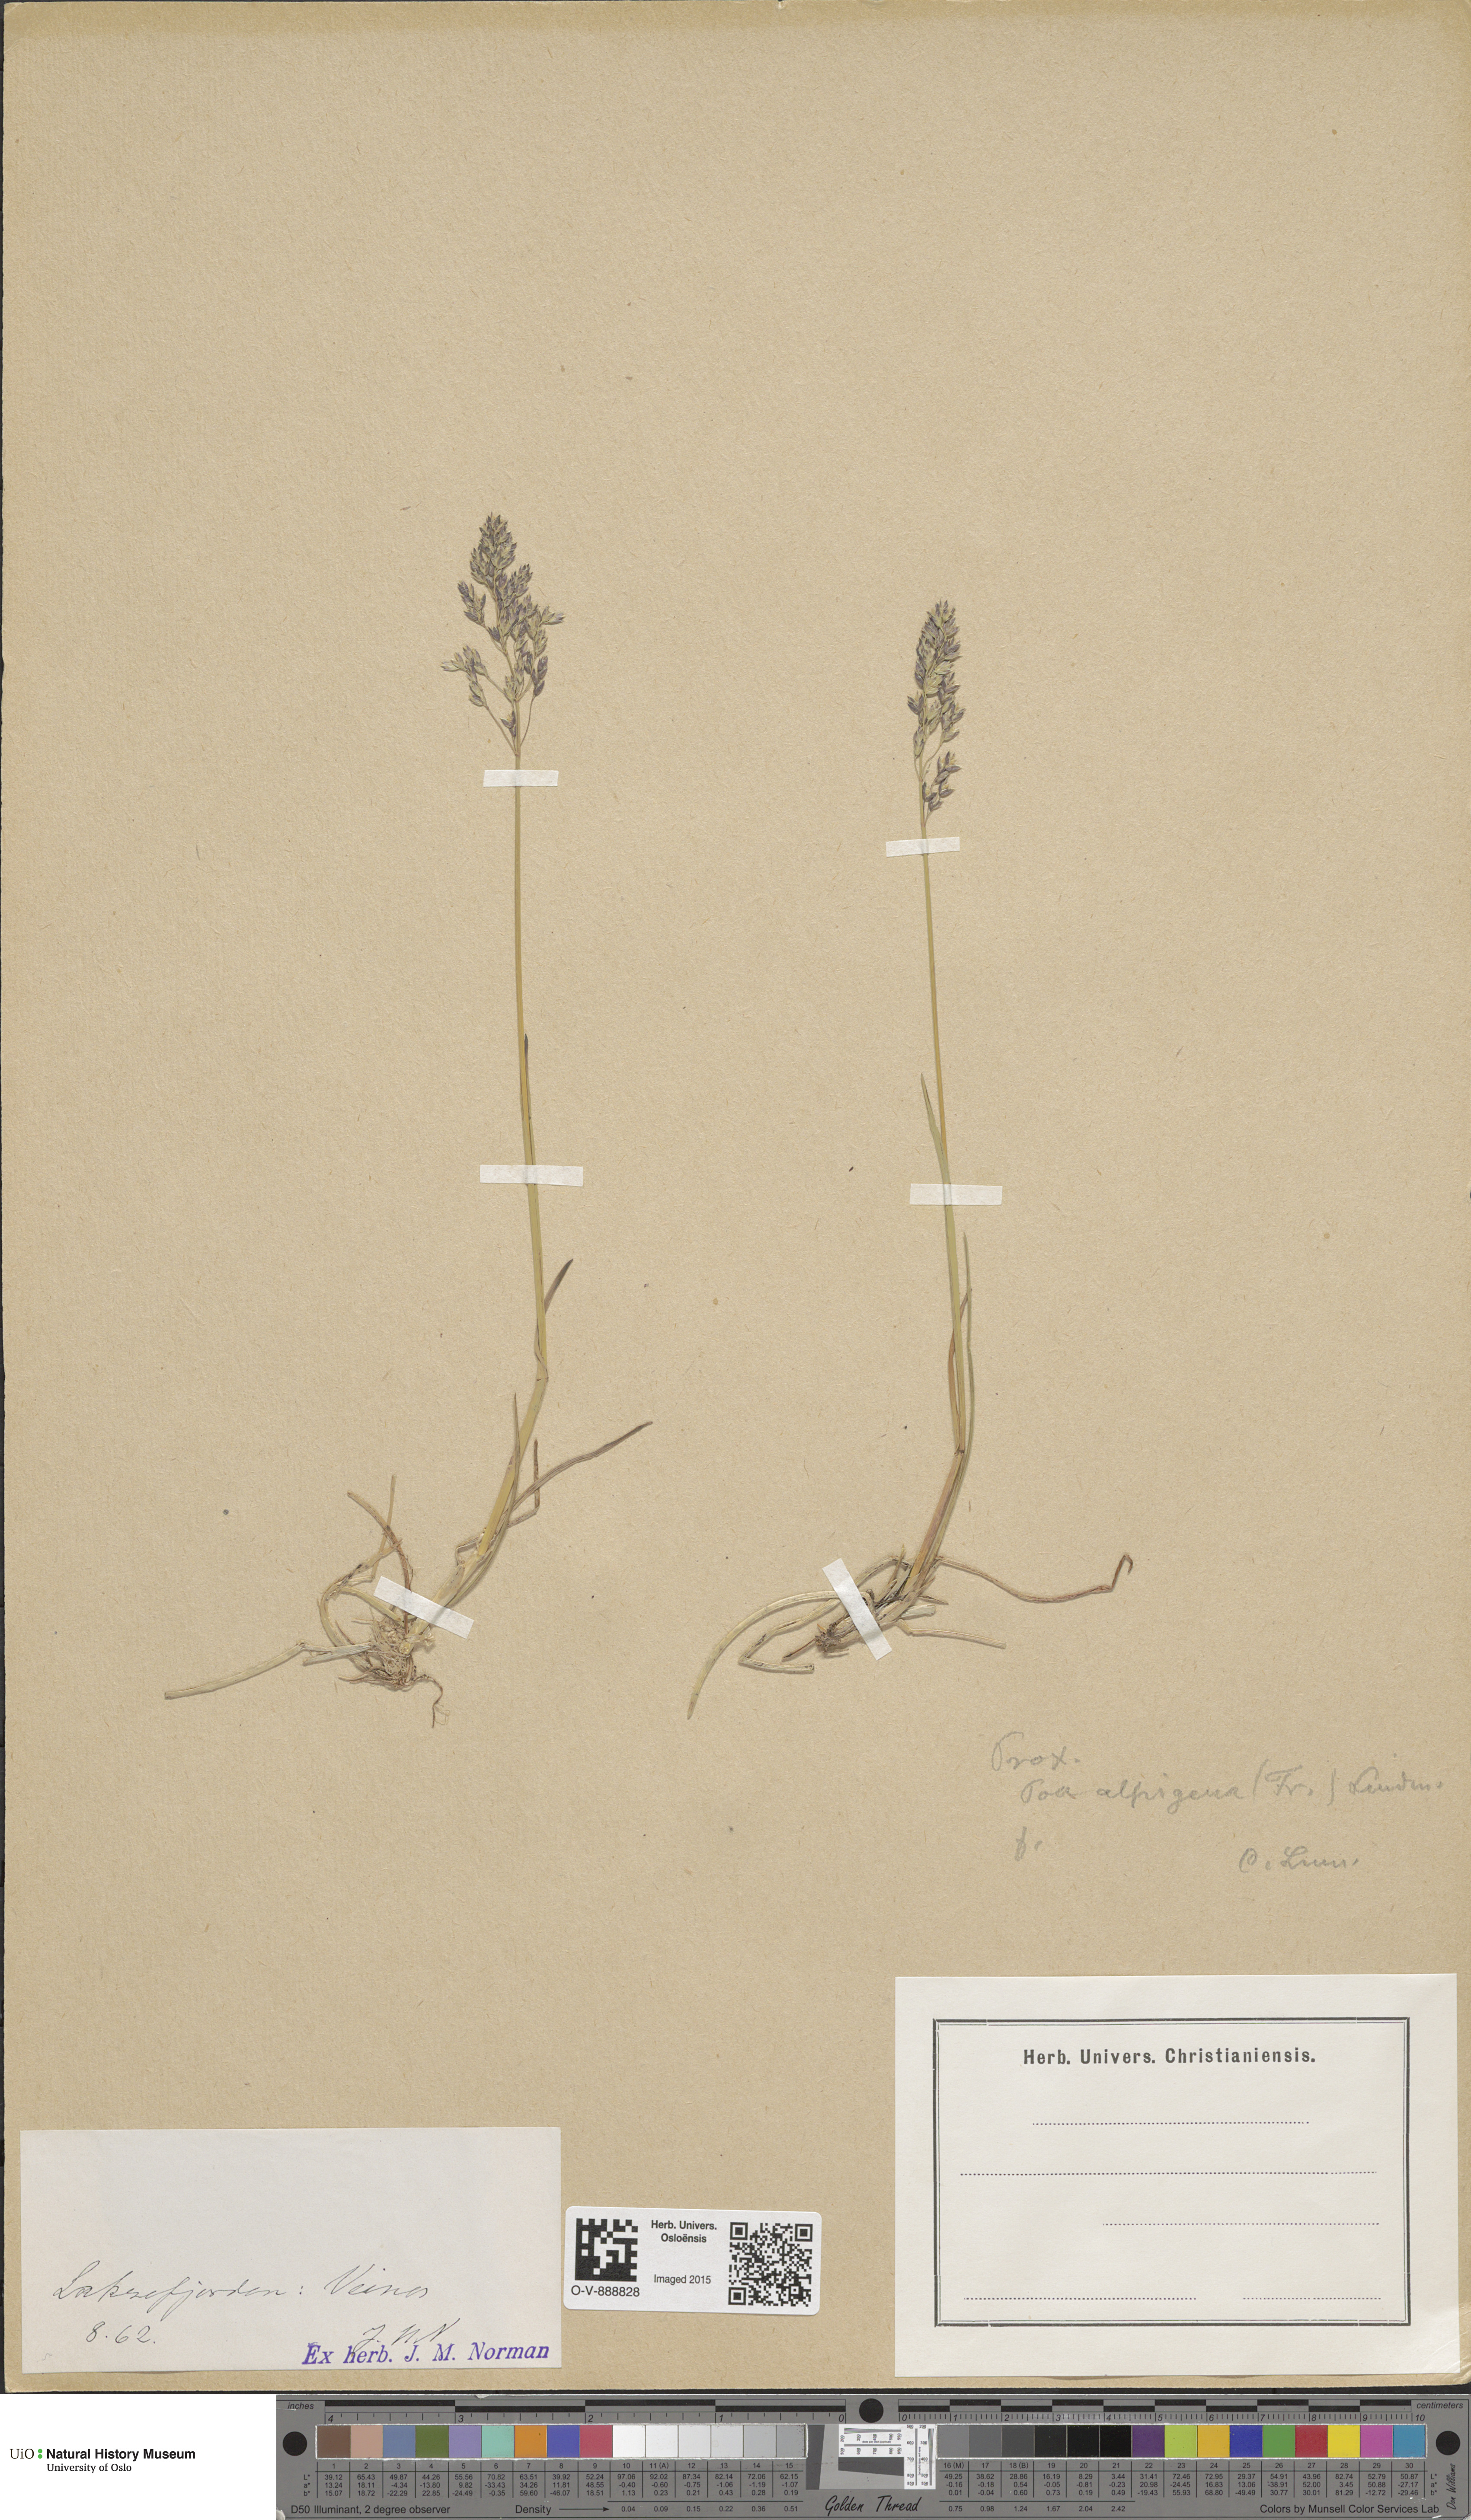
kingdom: Plantae
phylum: Tracheophyta
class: Liliopsida
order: Poales
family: Poaceae
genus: Poa
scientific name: Poa pratensis
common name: Kentucky bluegrass
